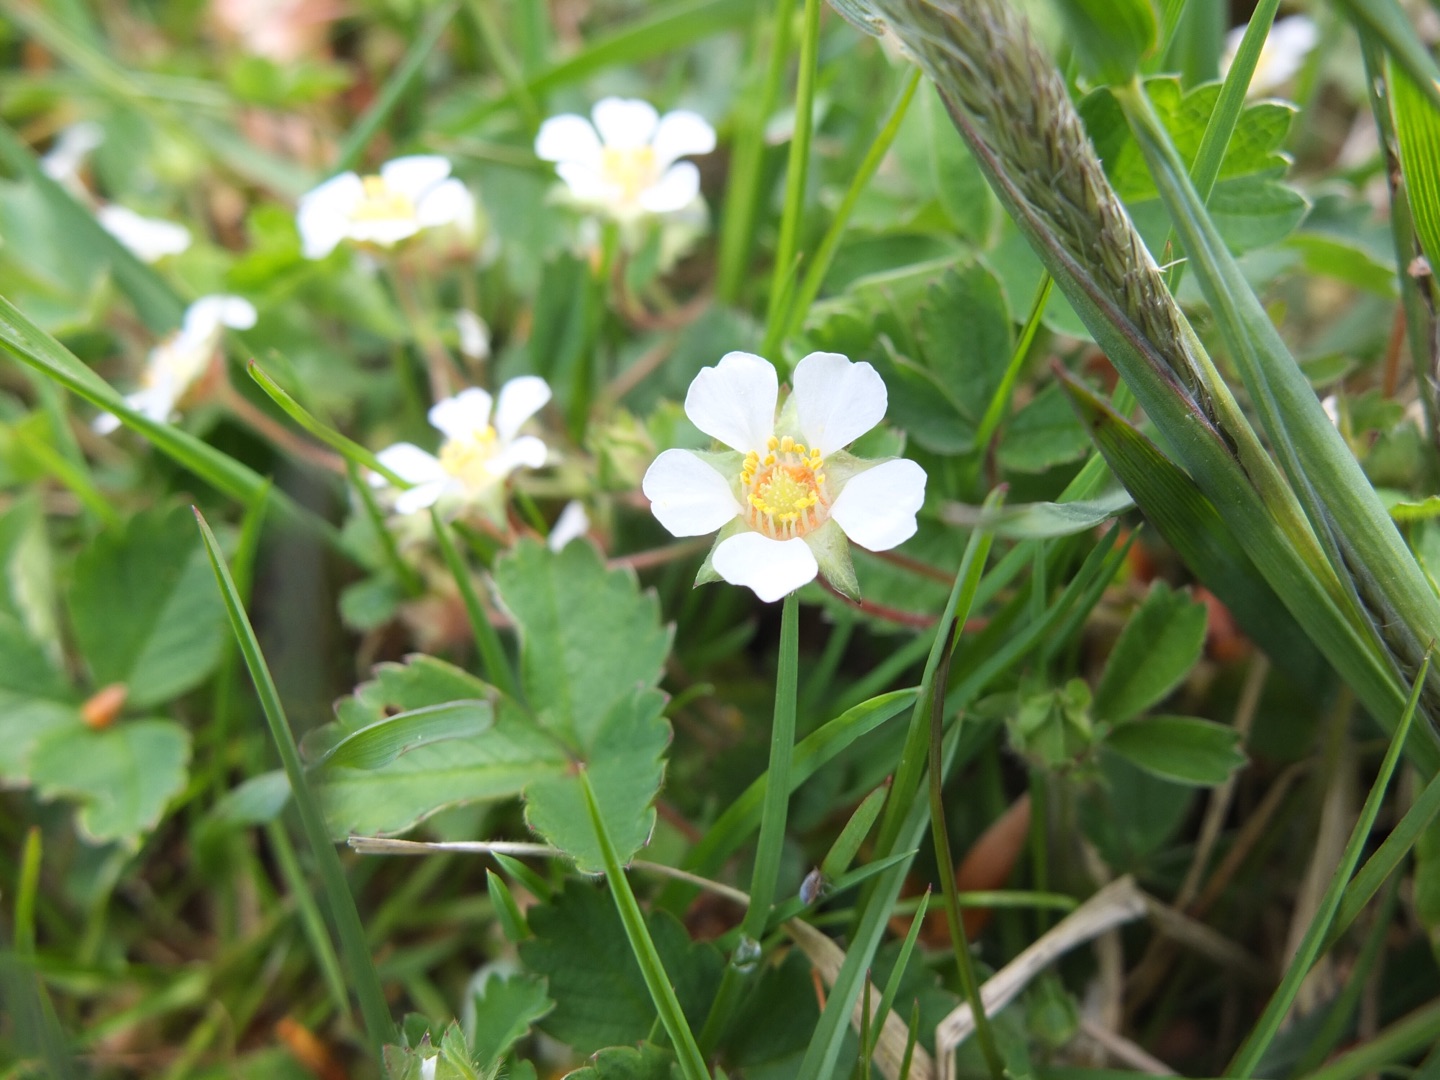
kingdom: Plantae
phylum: Tracheophyta
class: Magnoliopsida
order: Rosales
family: Rosaceae
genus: Potentilla
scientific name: Potentilla sterilis
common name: Jordbær-potentil
